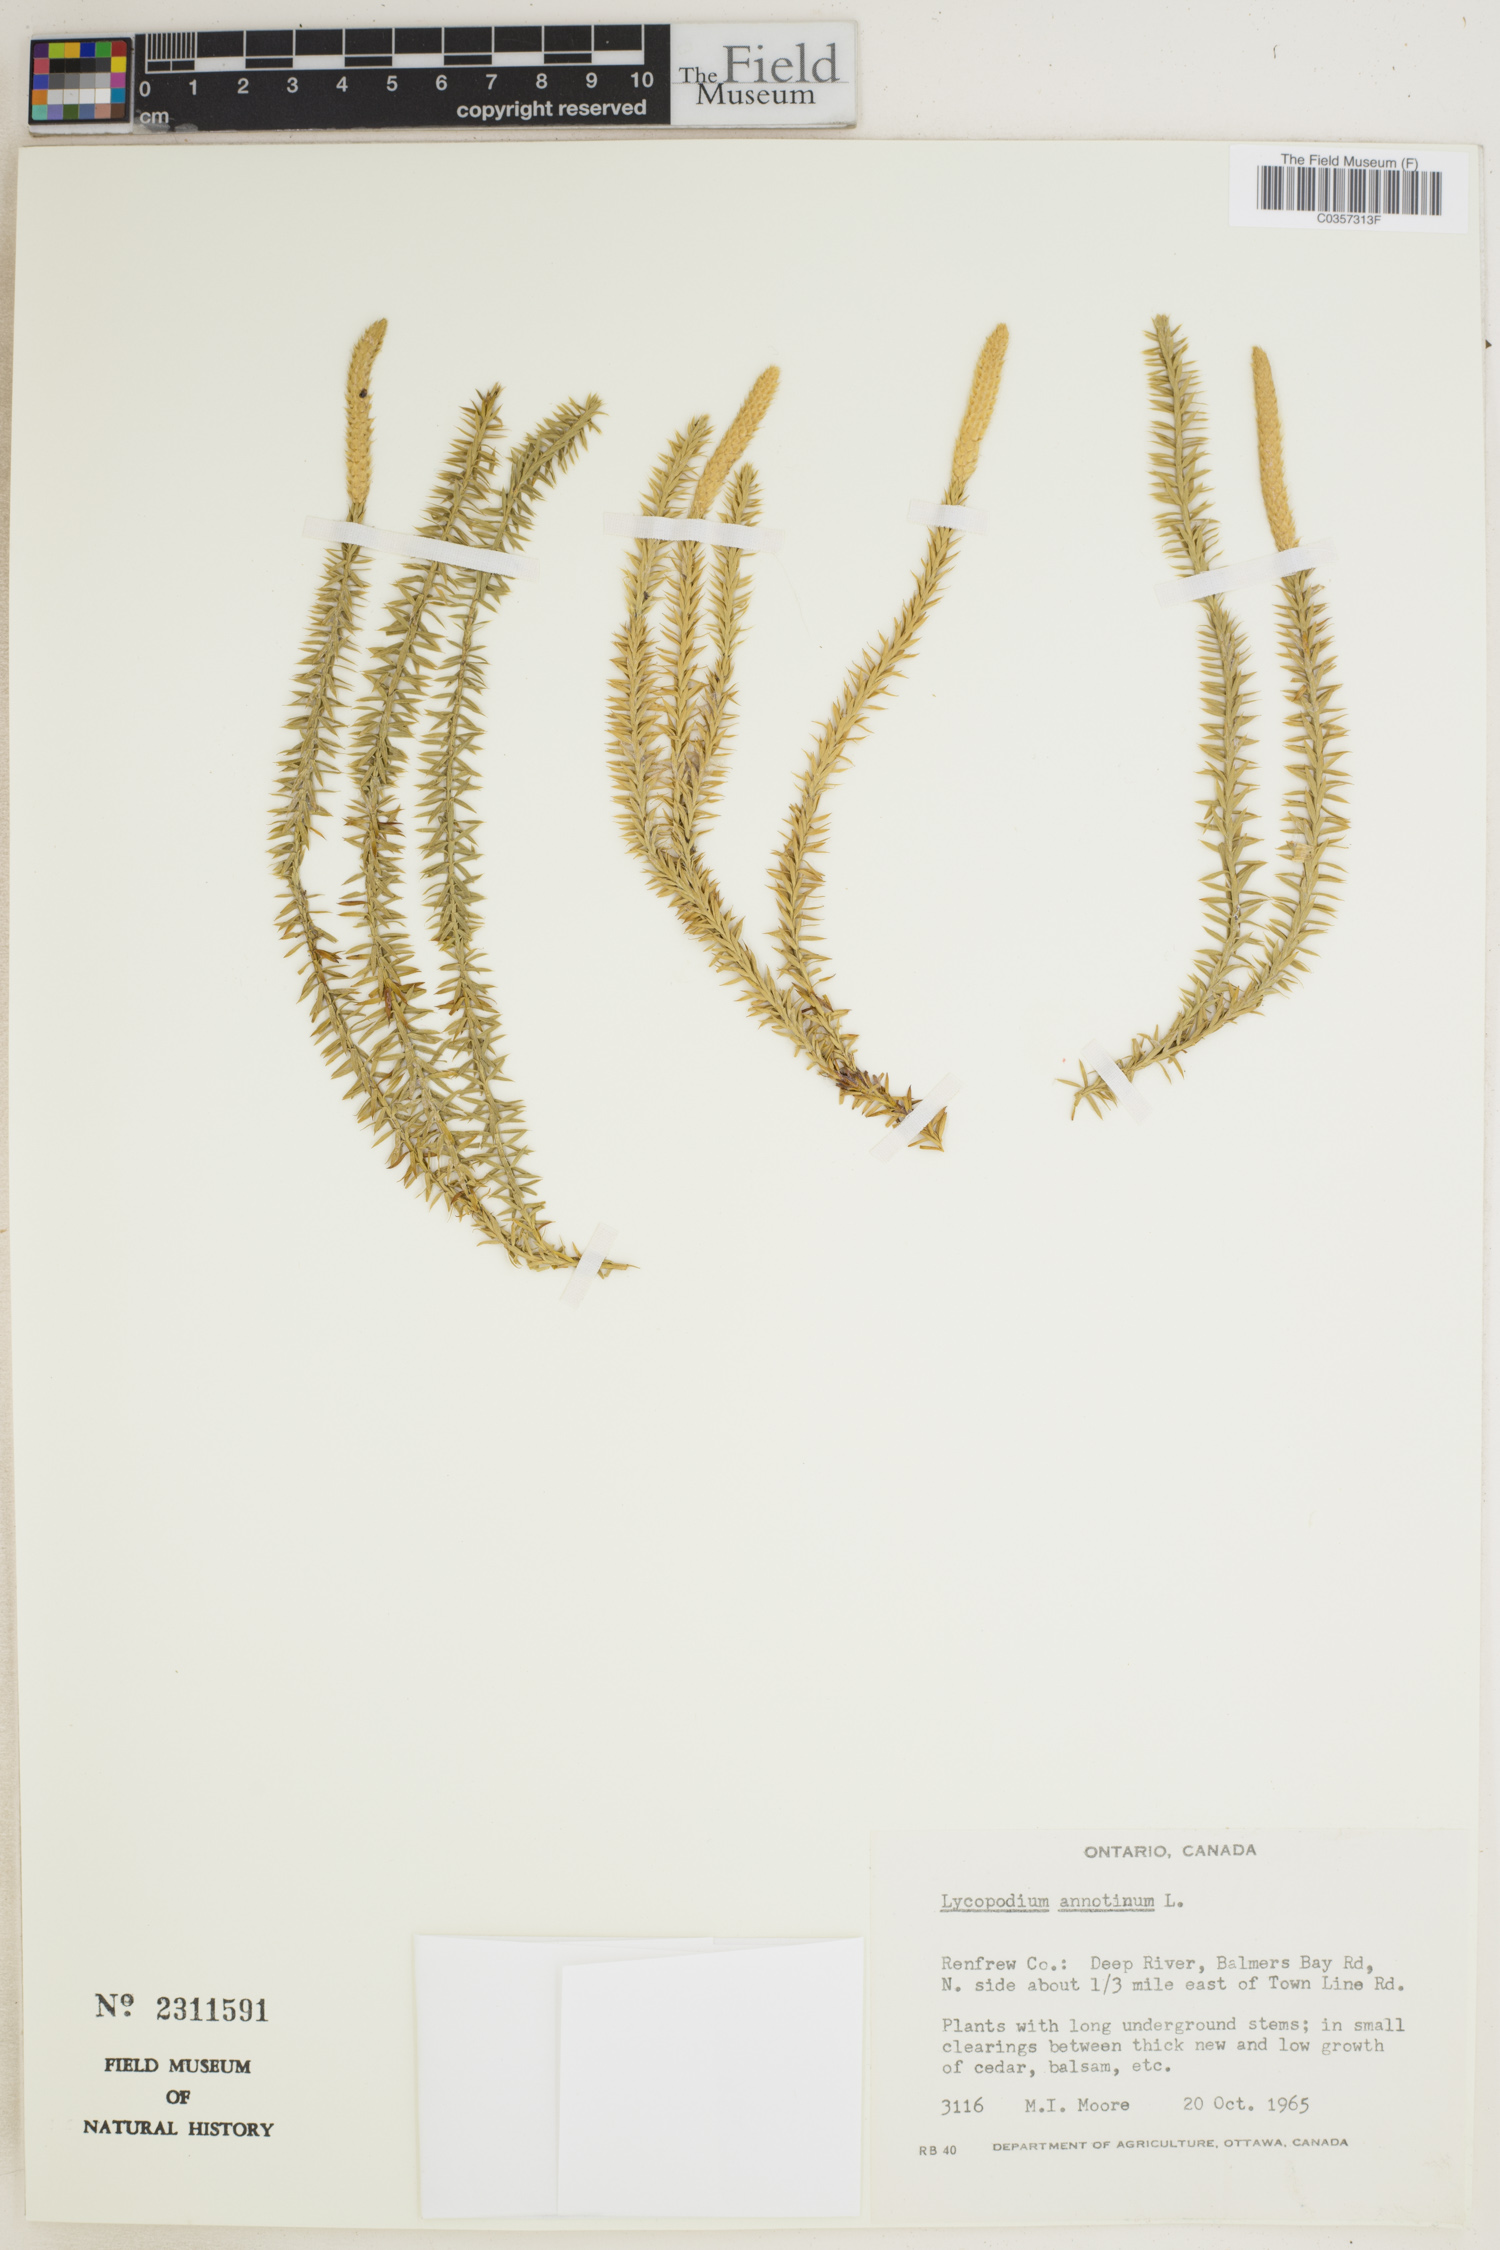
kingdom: Plantae
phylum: Tracheophyta
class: Lycopodiopsida
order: Lycopodiales
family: Lycopodiaceae
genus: Spinulum
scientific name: Spinulum annotinum
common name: Interrupted club-moss
